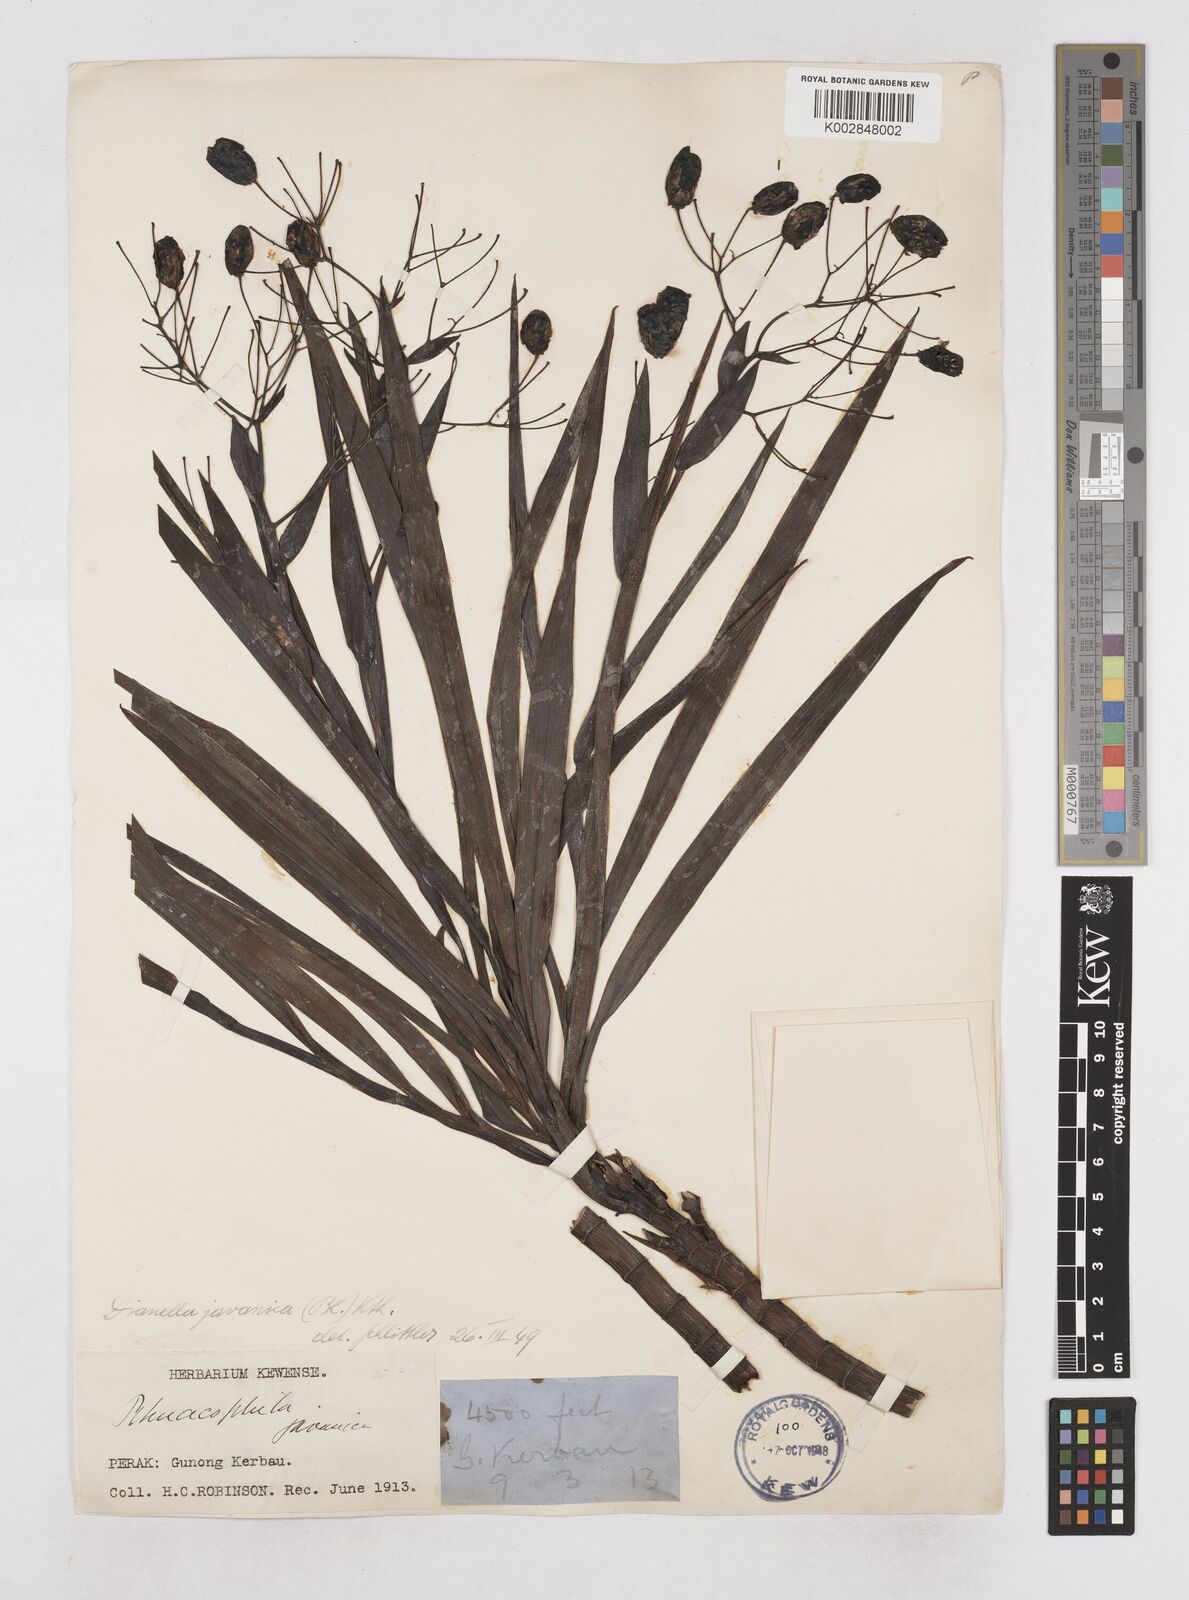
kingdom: Plantae
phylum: Tracheophyta
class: Liliopsida
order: Asparagales
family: Asphodelaceae
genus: Dianella
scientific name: Dianella ensifolia
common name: New zealand lilyplant
